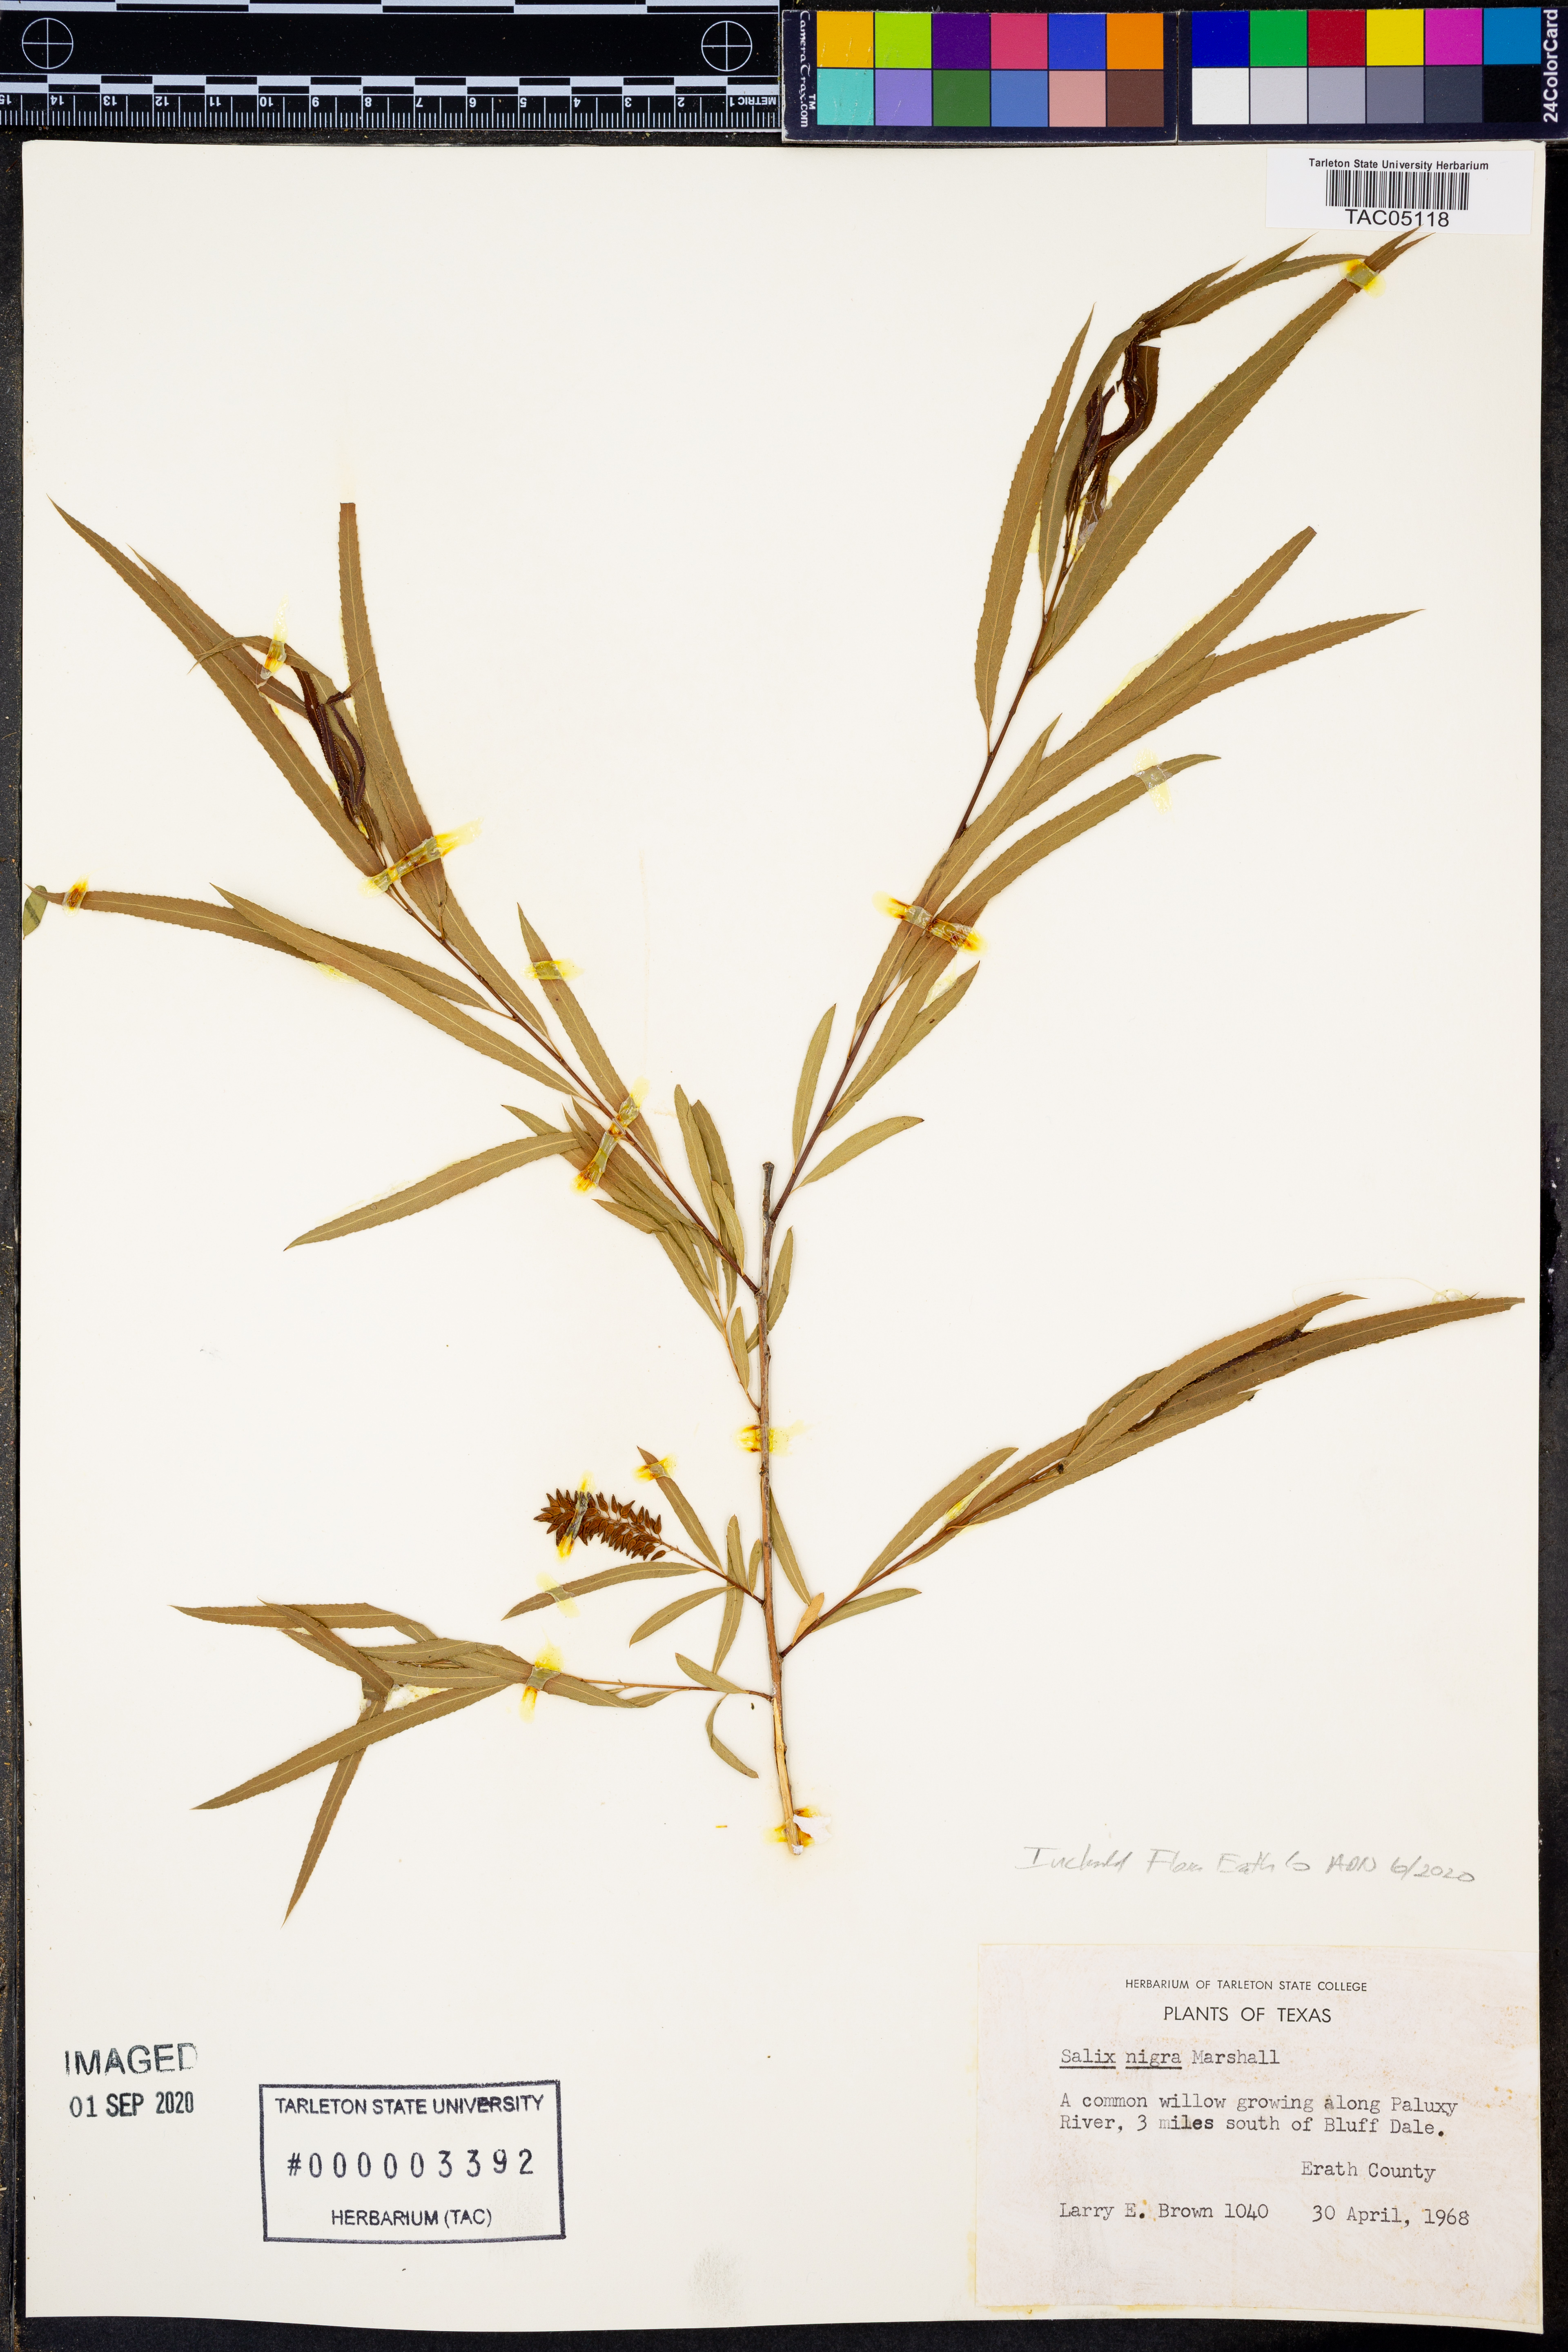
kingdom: Plantae
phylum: Tracheophyta
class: Magnoliopsida
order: Malpighiales
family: Salicaceae
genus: Salix
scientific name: Salix nigra
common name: Black willow
